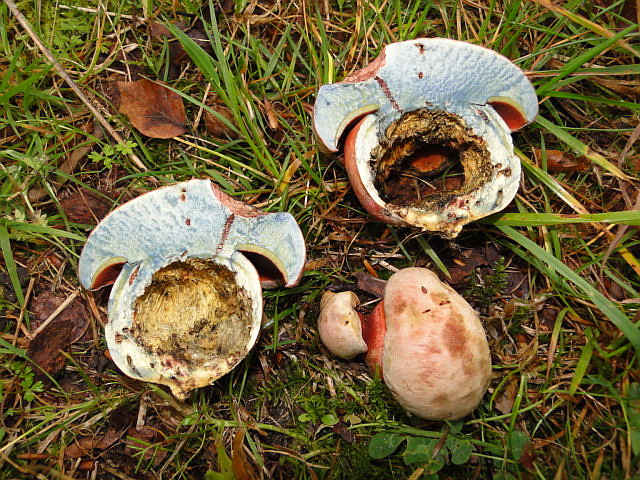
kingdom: Fungi
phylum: Basidiomycota
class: Agaricomycetes
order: Boletales
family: Boletaceae
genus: Rubroboletus
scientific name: Rubroboletus satanas
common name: Satans rørhat
